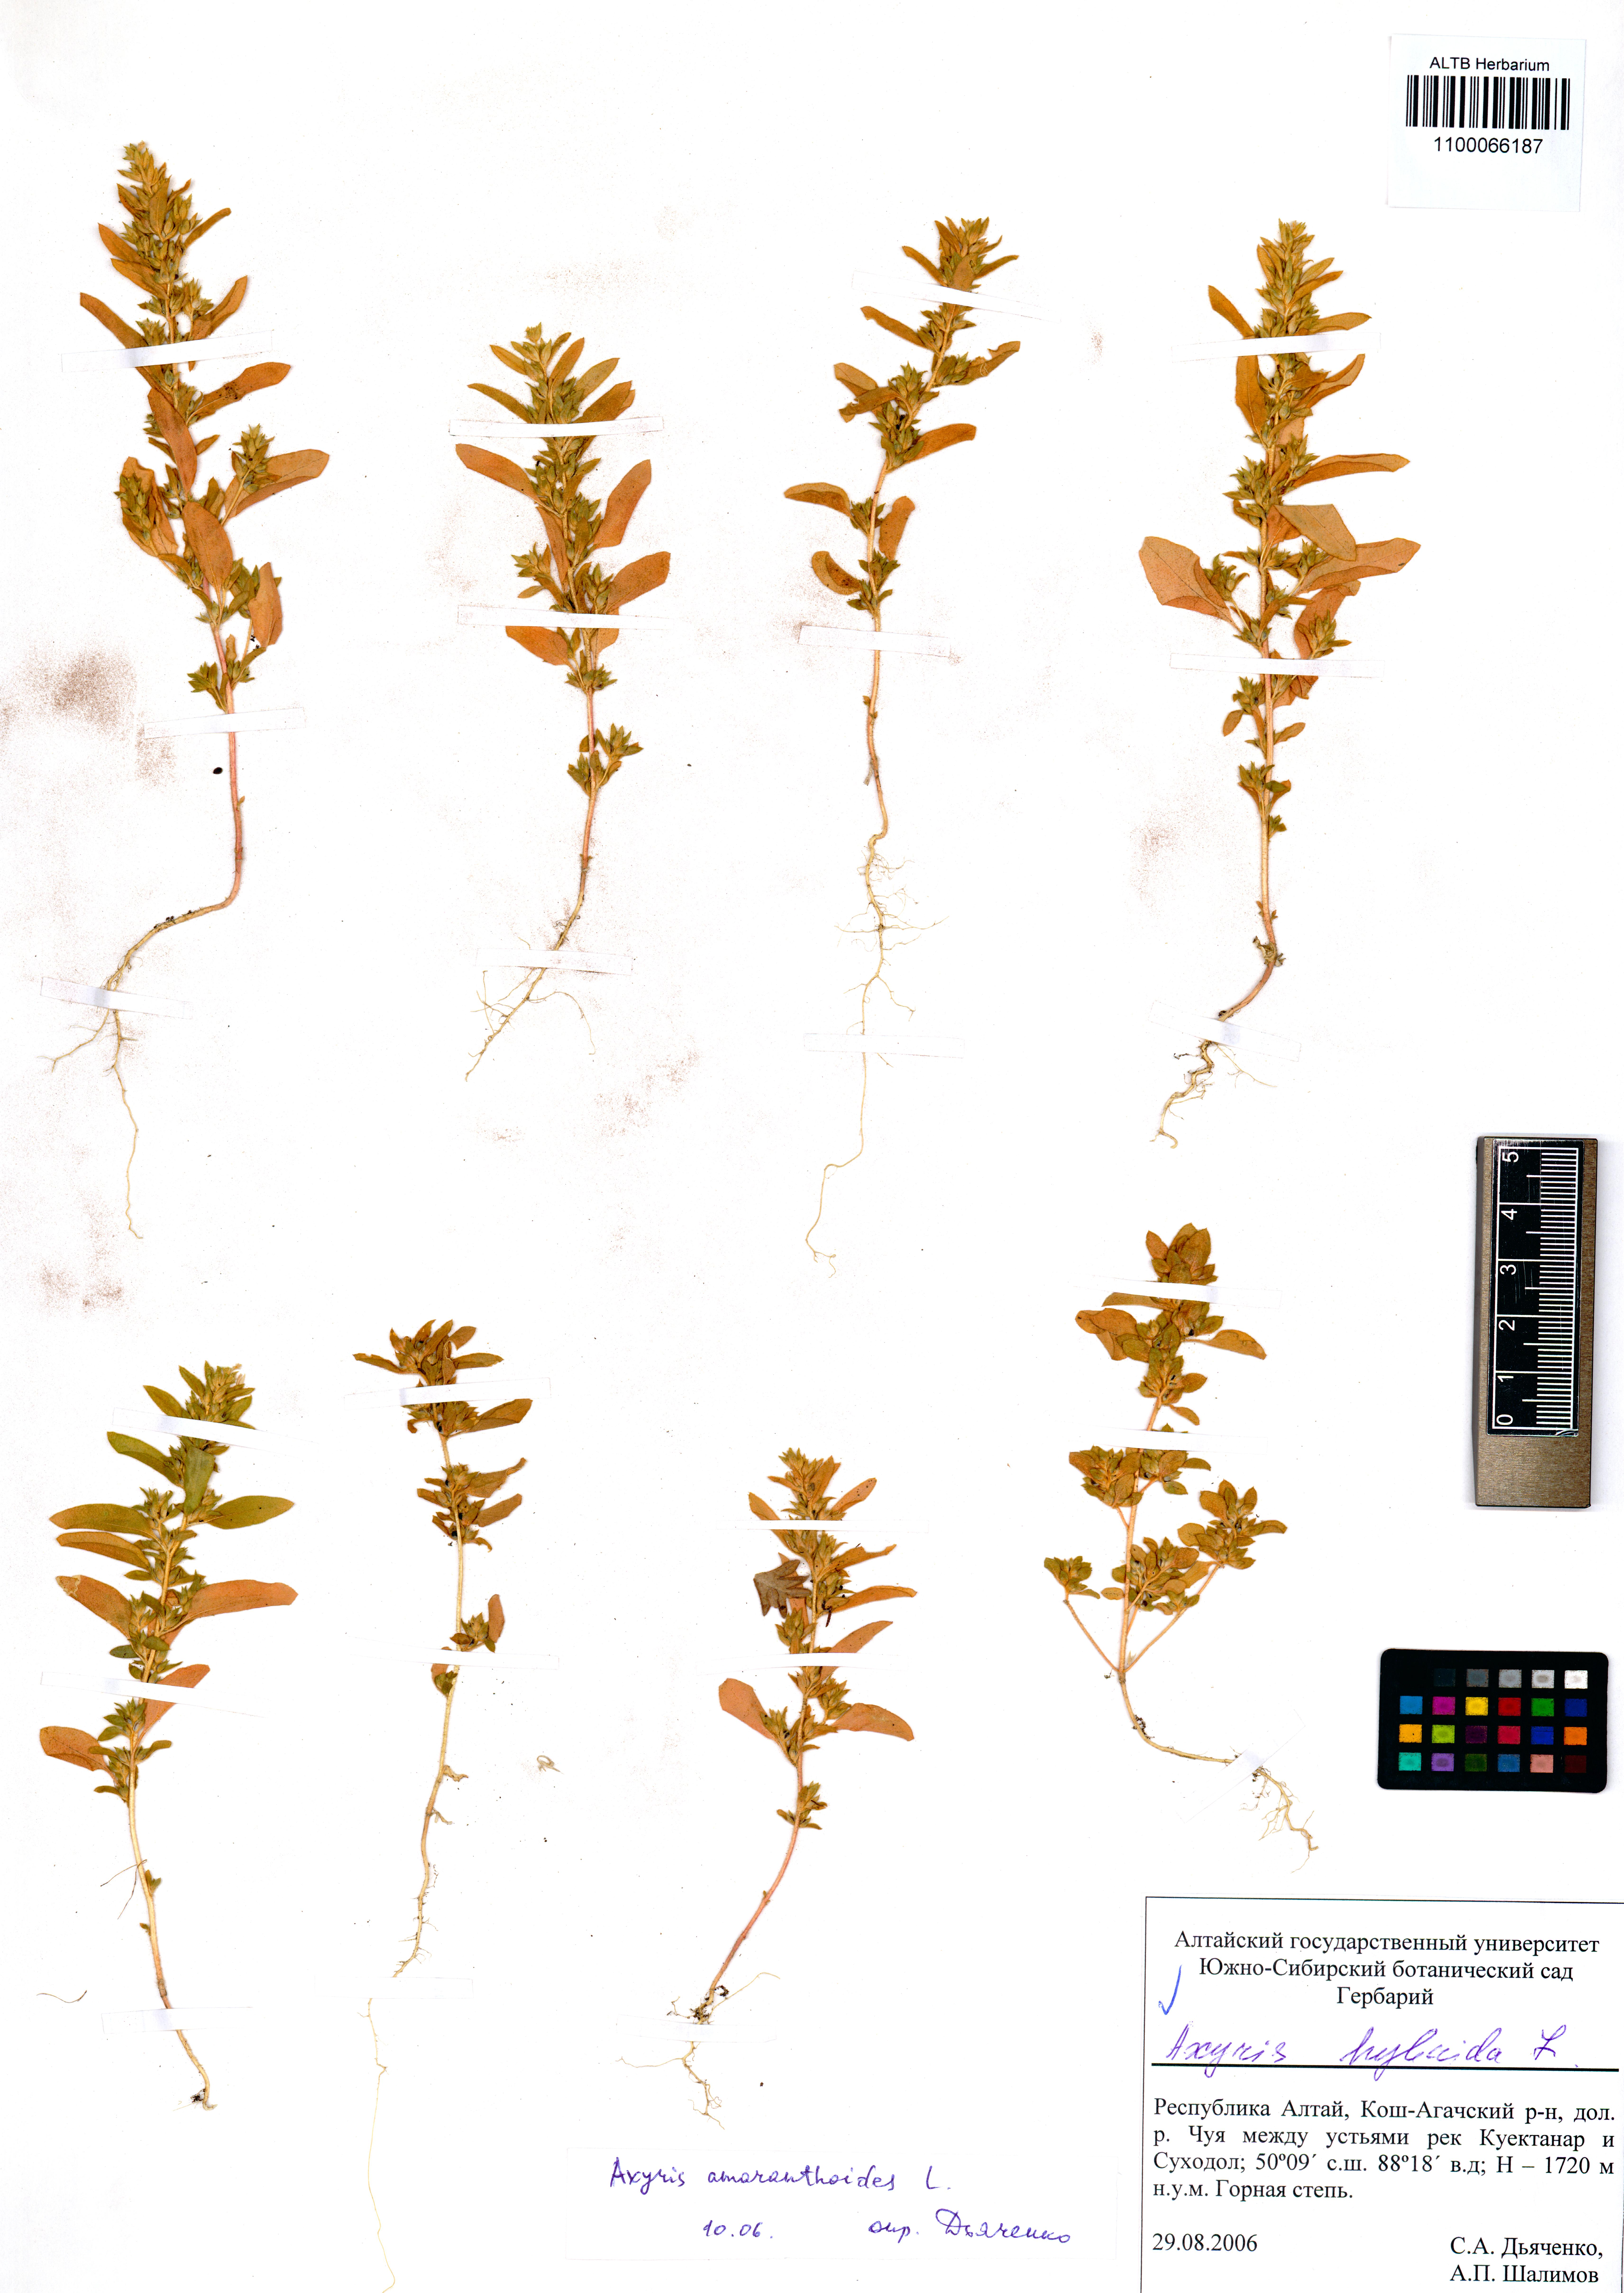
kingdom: Plantae
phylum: Tracheophyta
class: Magnoliopsida
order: Caryophyllales
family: Amaranthaceae
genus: Axyris
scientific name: Axyris hybrida
